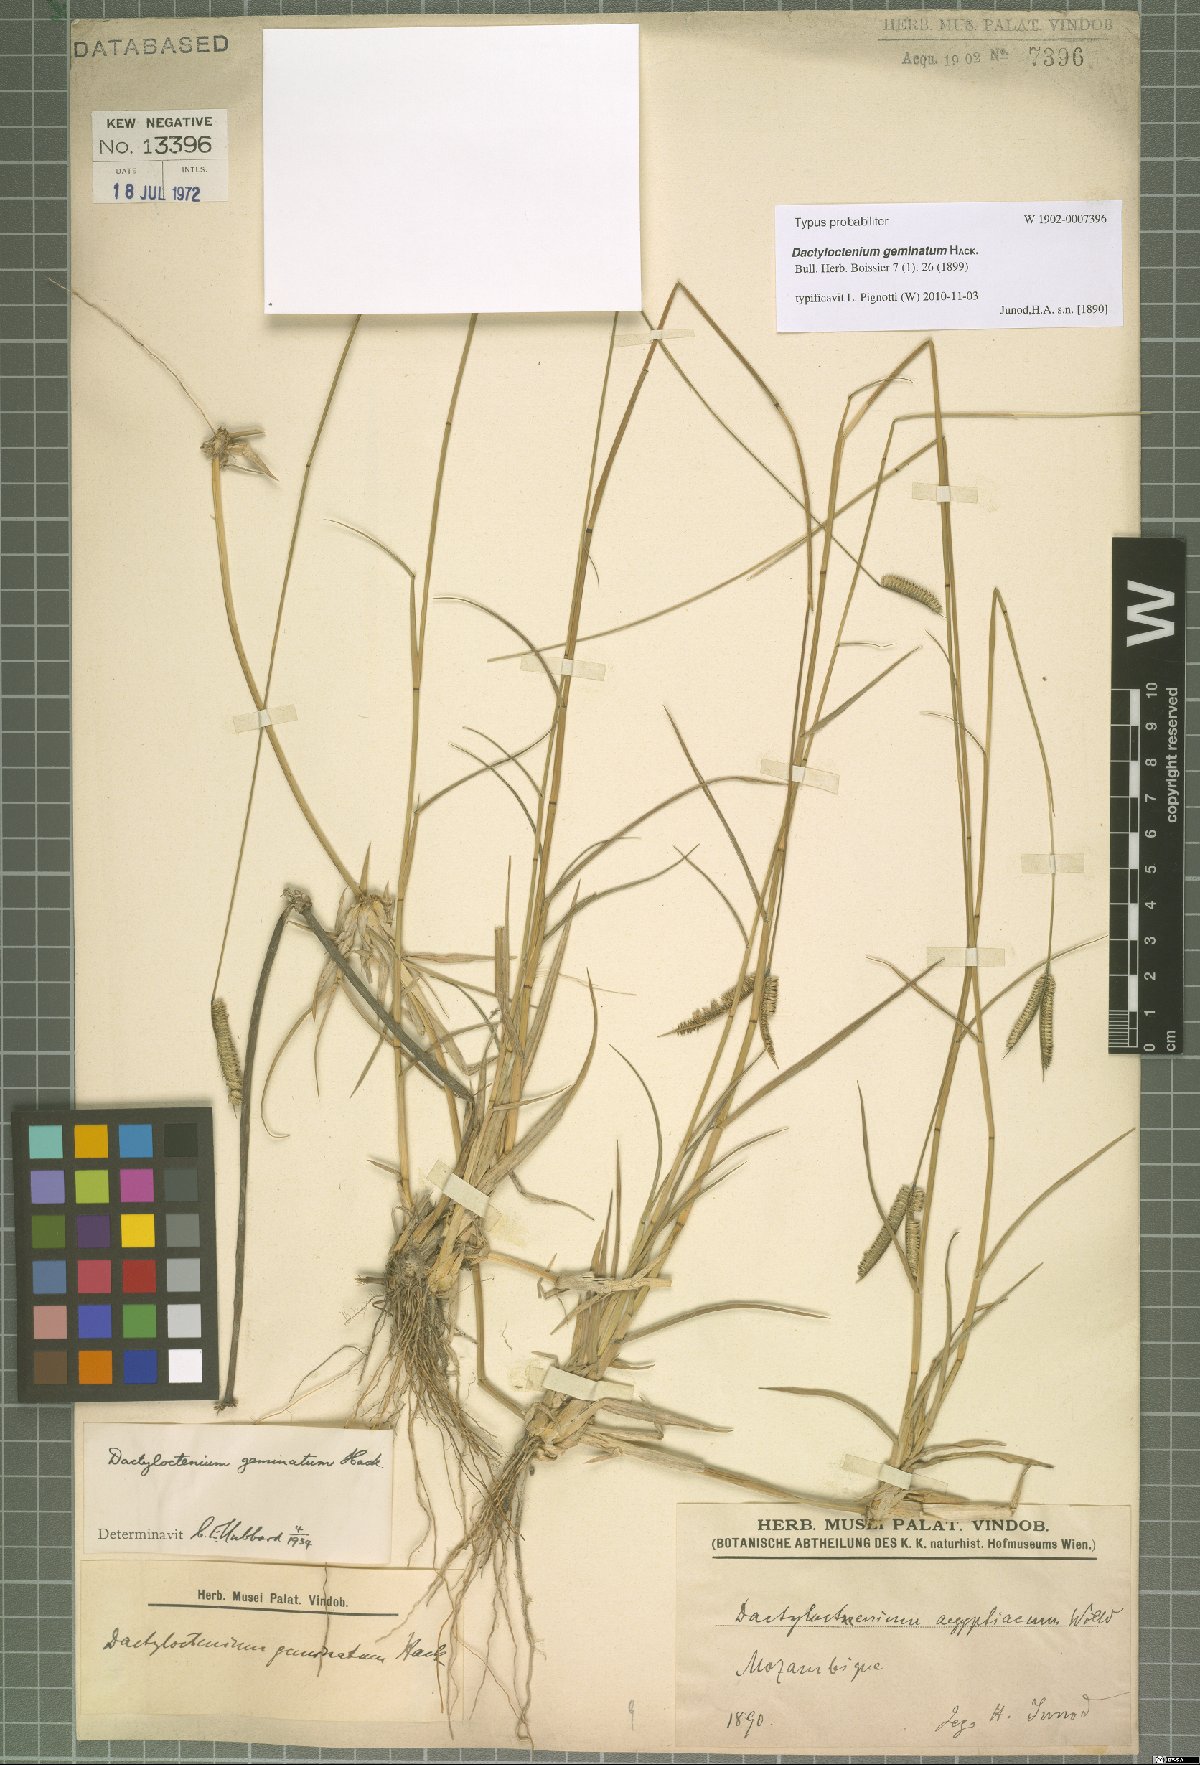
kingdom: Plantae
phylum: Tracheophyta
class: Liliopsida
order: Poales
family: Poaceae
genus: Dactyloctenium
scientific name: Dactyloctenium geminatum
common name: Crowsfoot grass
